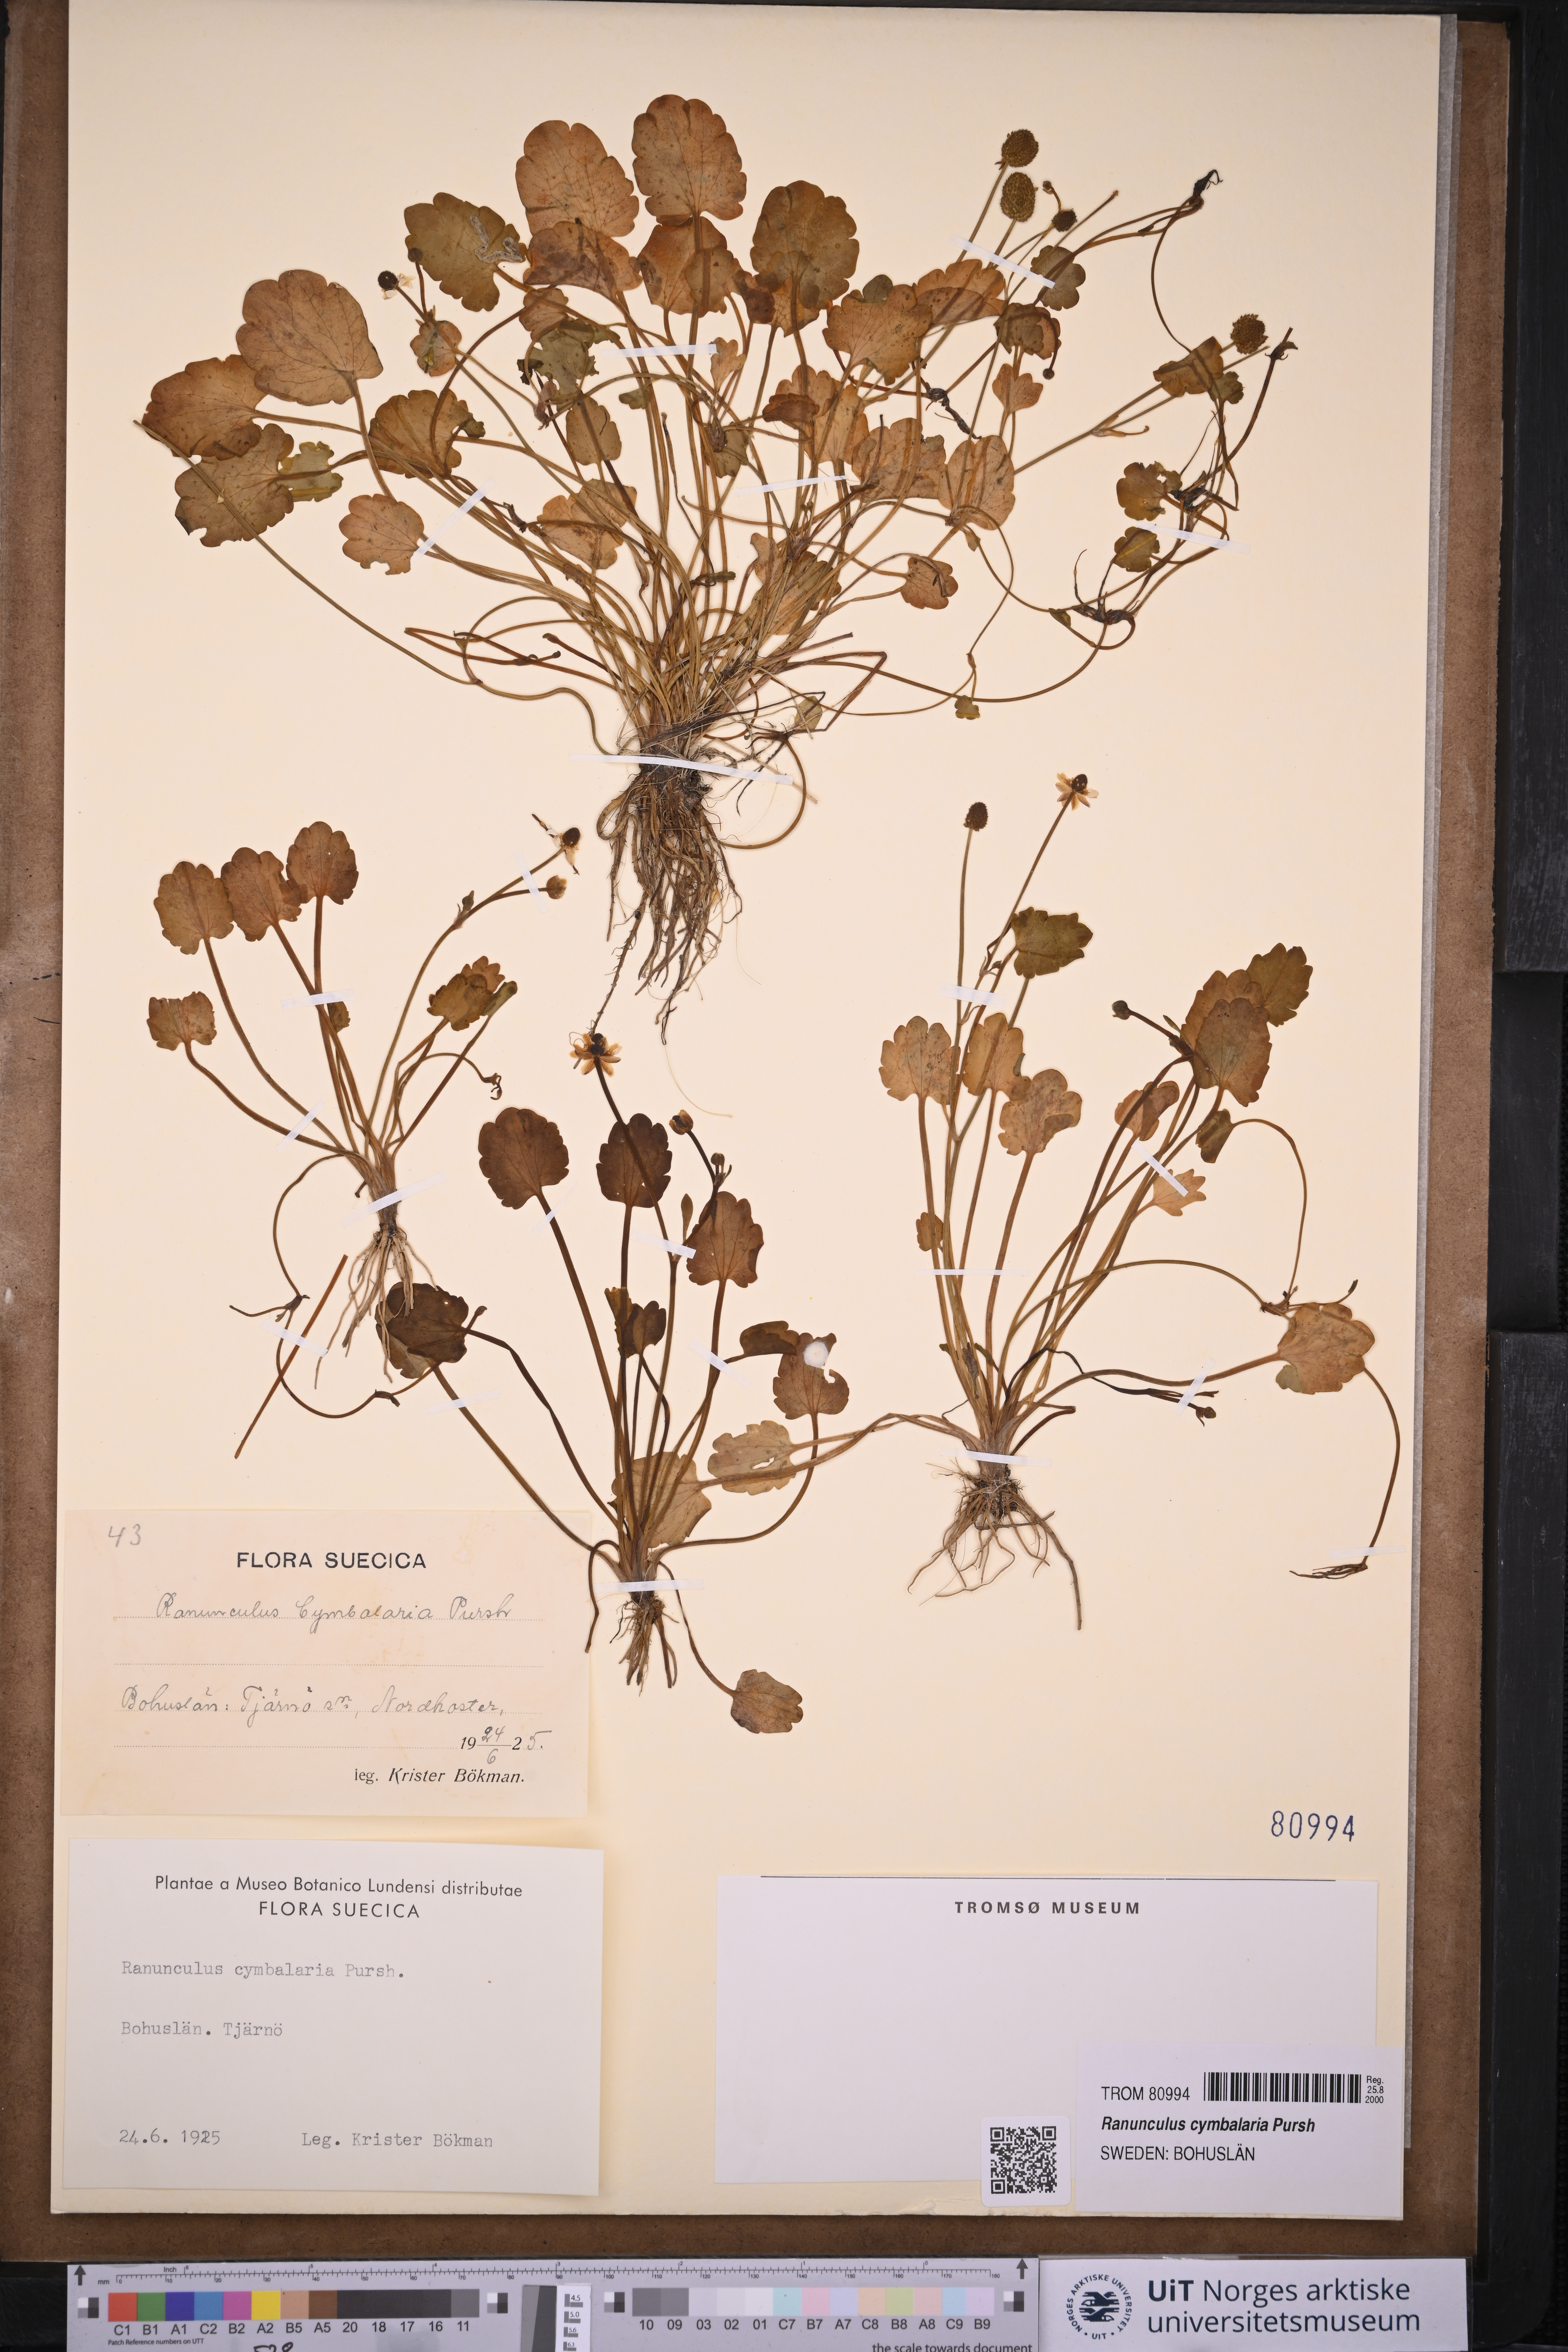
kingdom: Plantae
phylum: Tracheophyta
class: Magnoliopsida
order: Ranunculales
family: Ranunculaceae
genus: Halerpestes
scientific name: Halerpestes cymbalaria
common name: Seaside crowfoot
